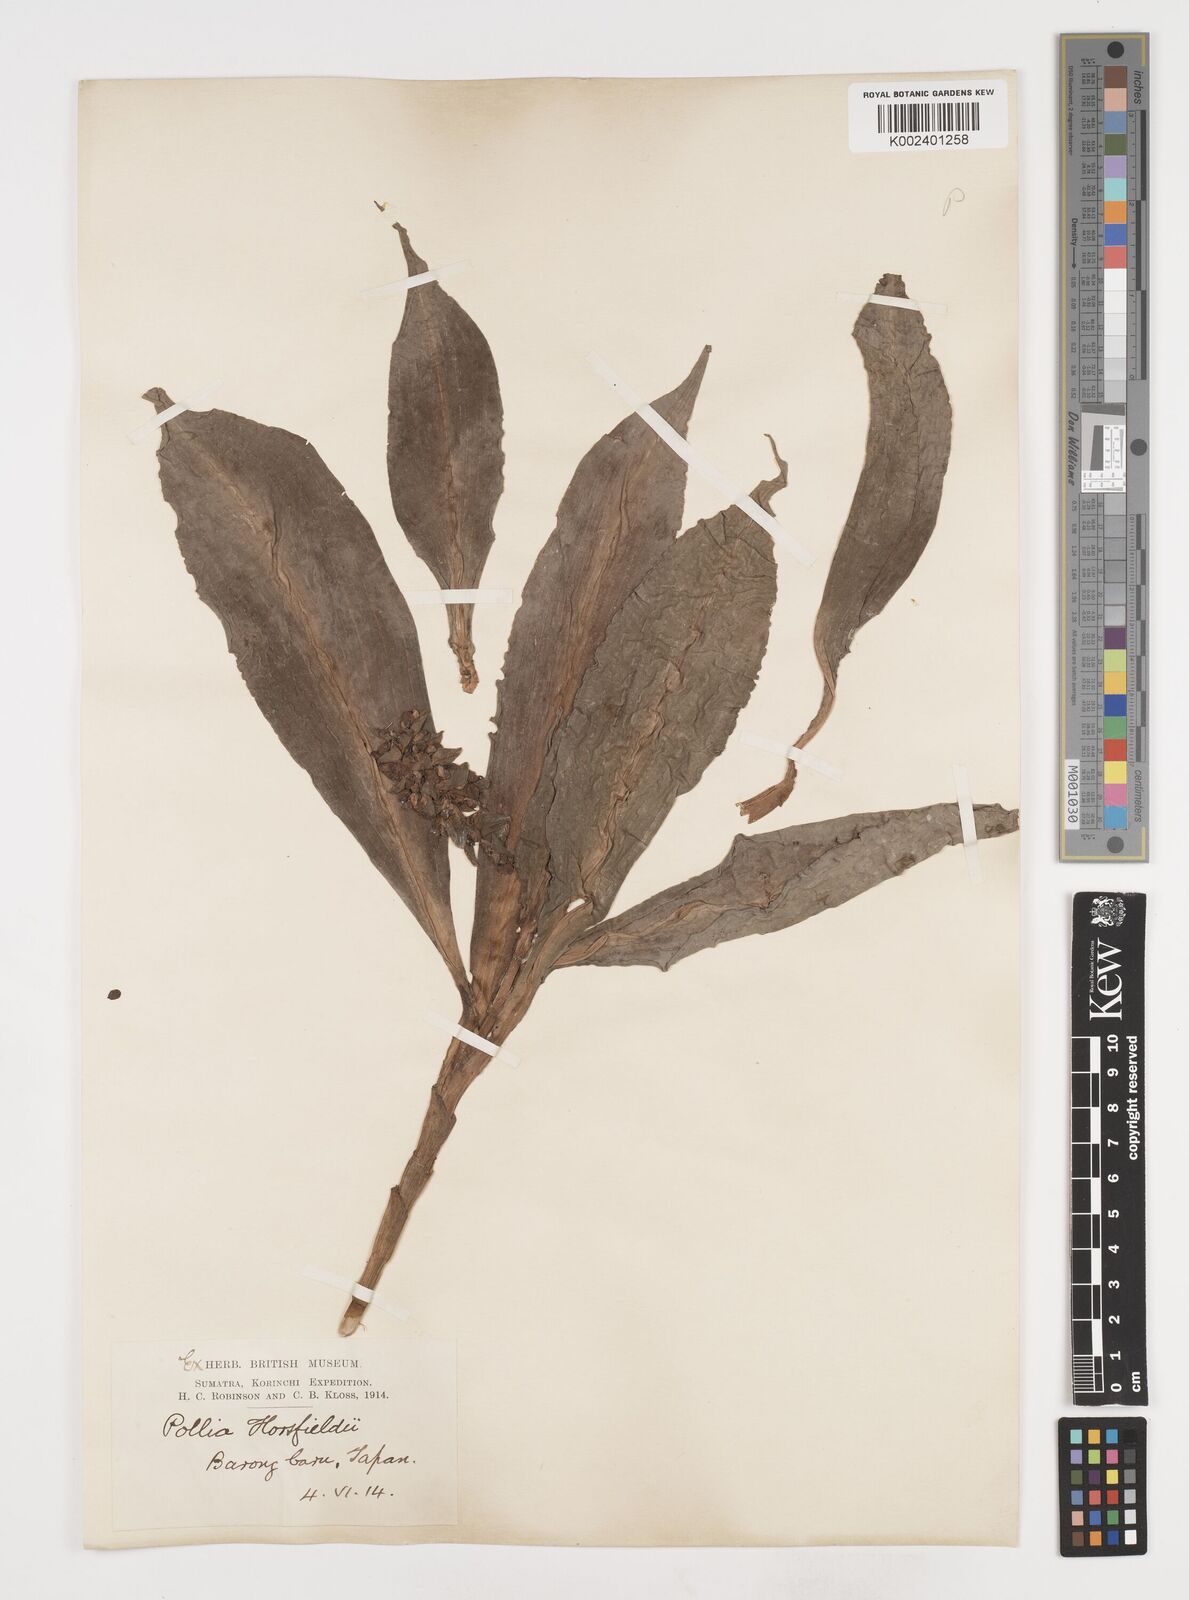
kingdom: Plantae
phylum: Tracheophyta
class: Liliopsida
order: Commelinales
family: Commelinaceae
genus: Pollia
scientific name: Pollia horsfieldii
